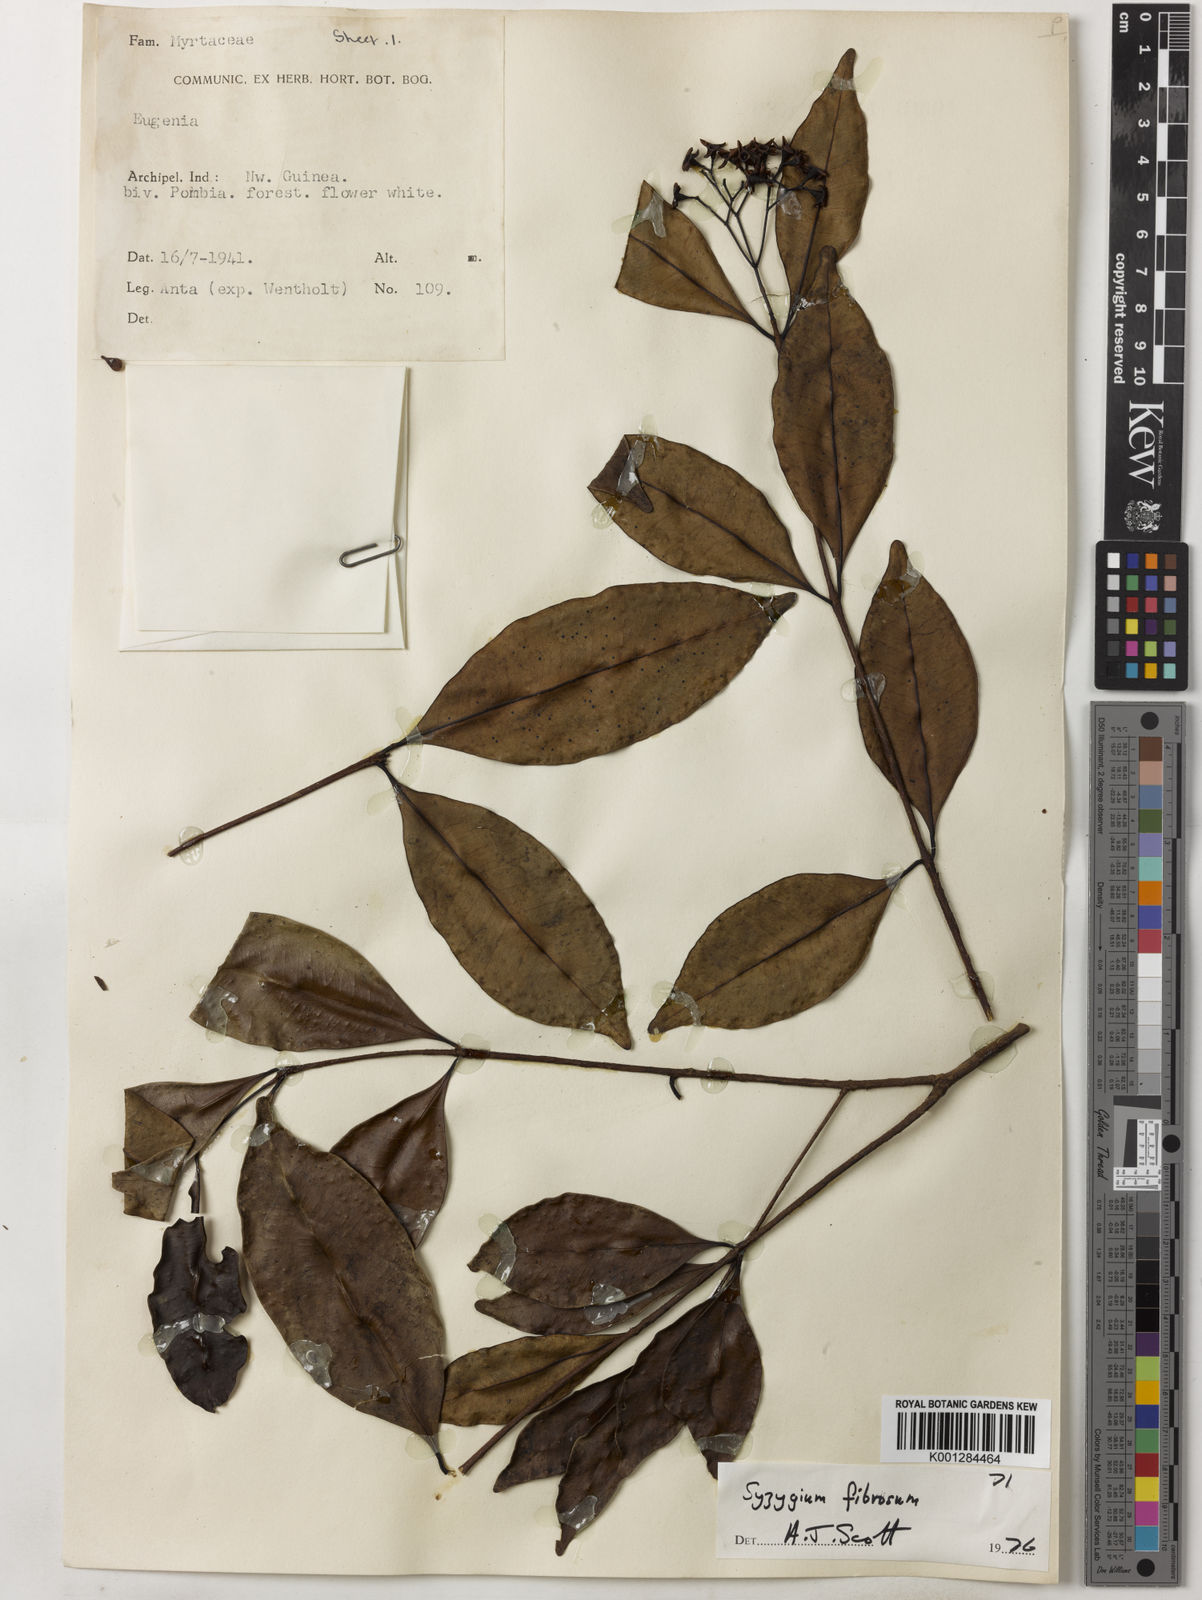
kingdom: Plantae
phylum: Tracheophyta
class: Magnoliopsida
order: Myrtales
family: Myrtaceae
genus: Syzygium
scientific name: Syzygium fibrosum
